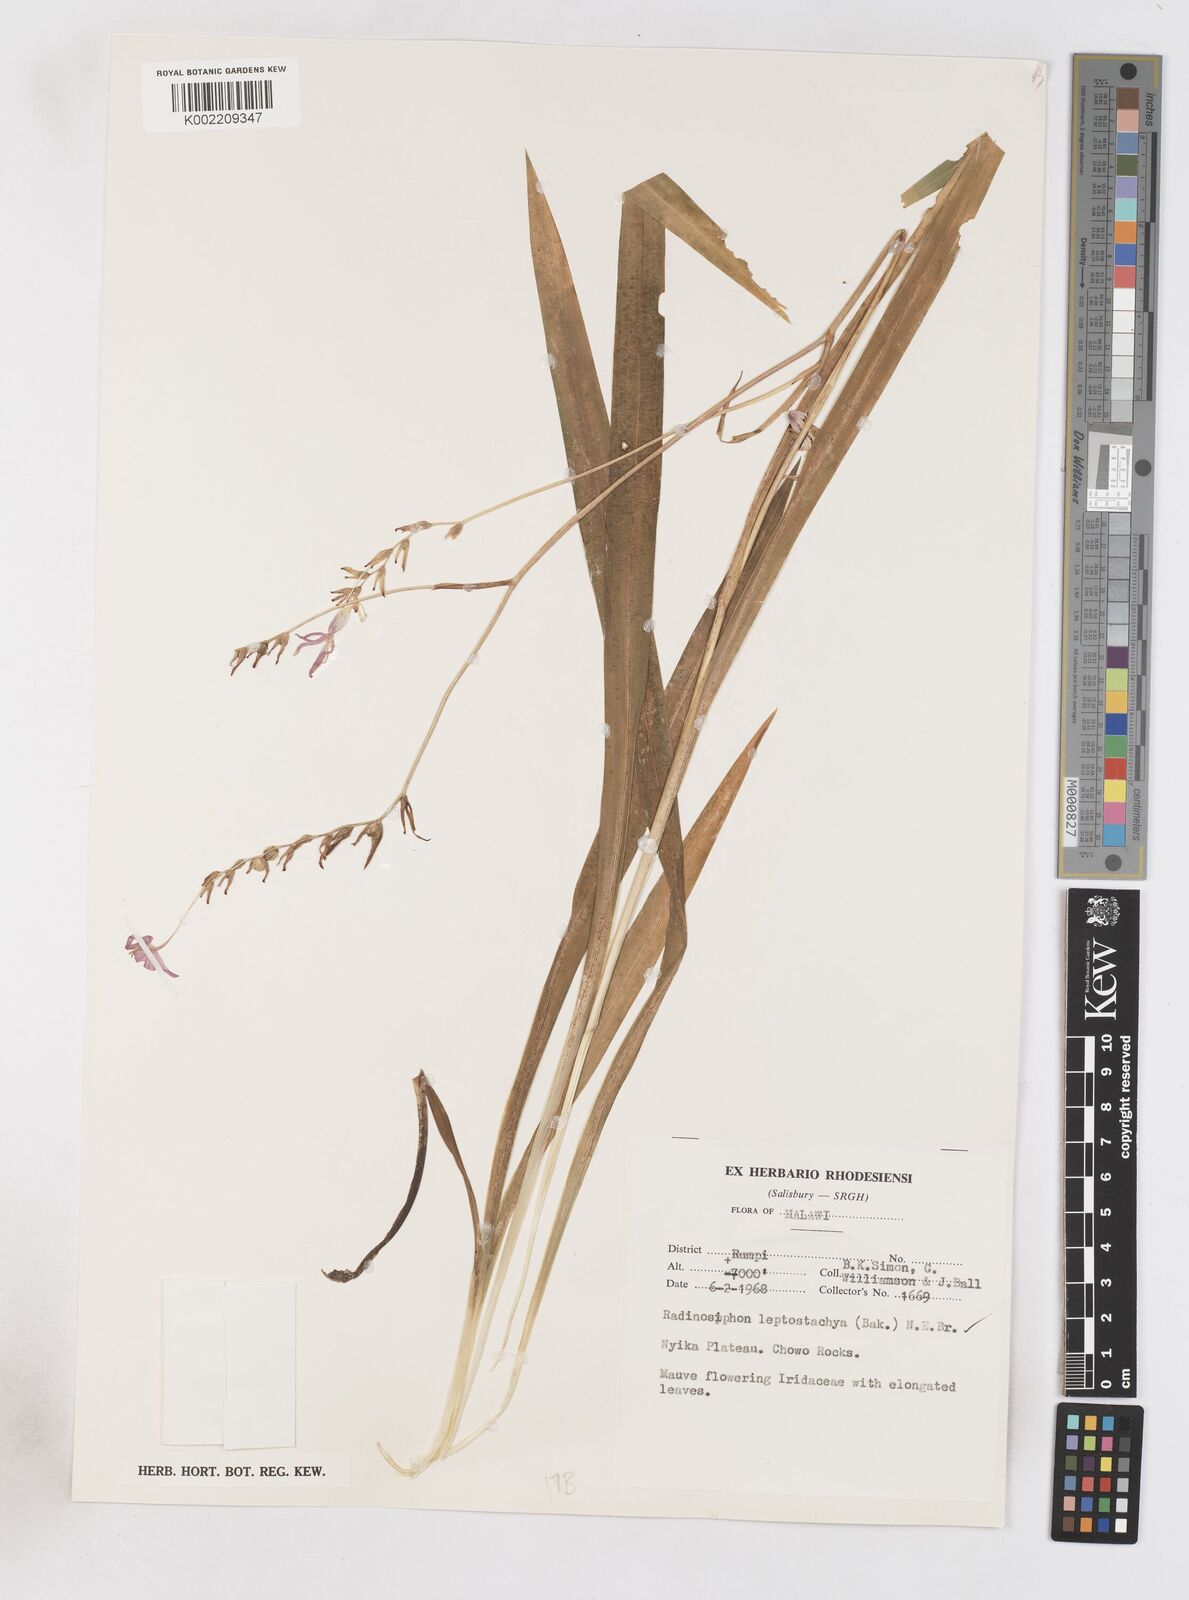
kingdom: Plantae
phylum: Tracheophyta
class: Liliopsida
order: Asparagales
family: Iridaceae
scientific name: Iridaceae
